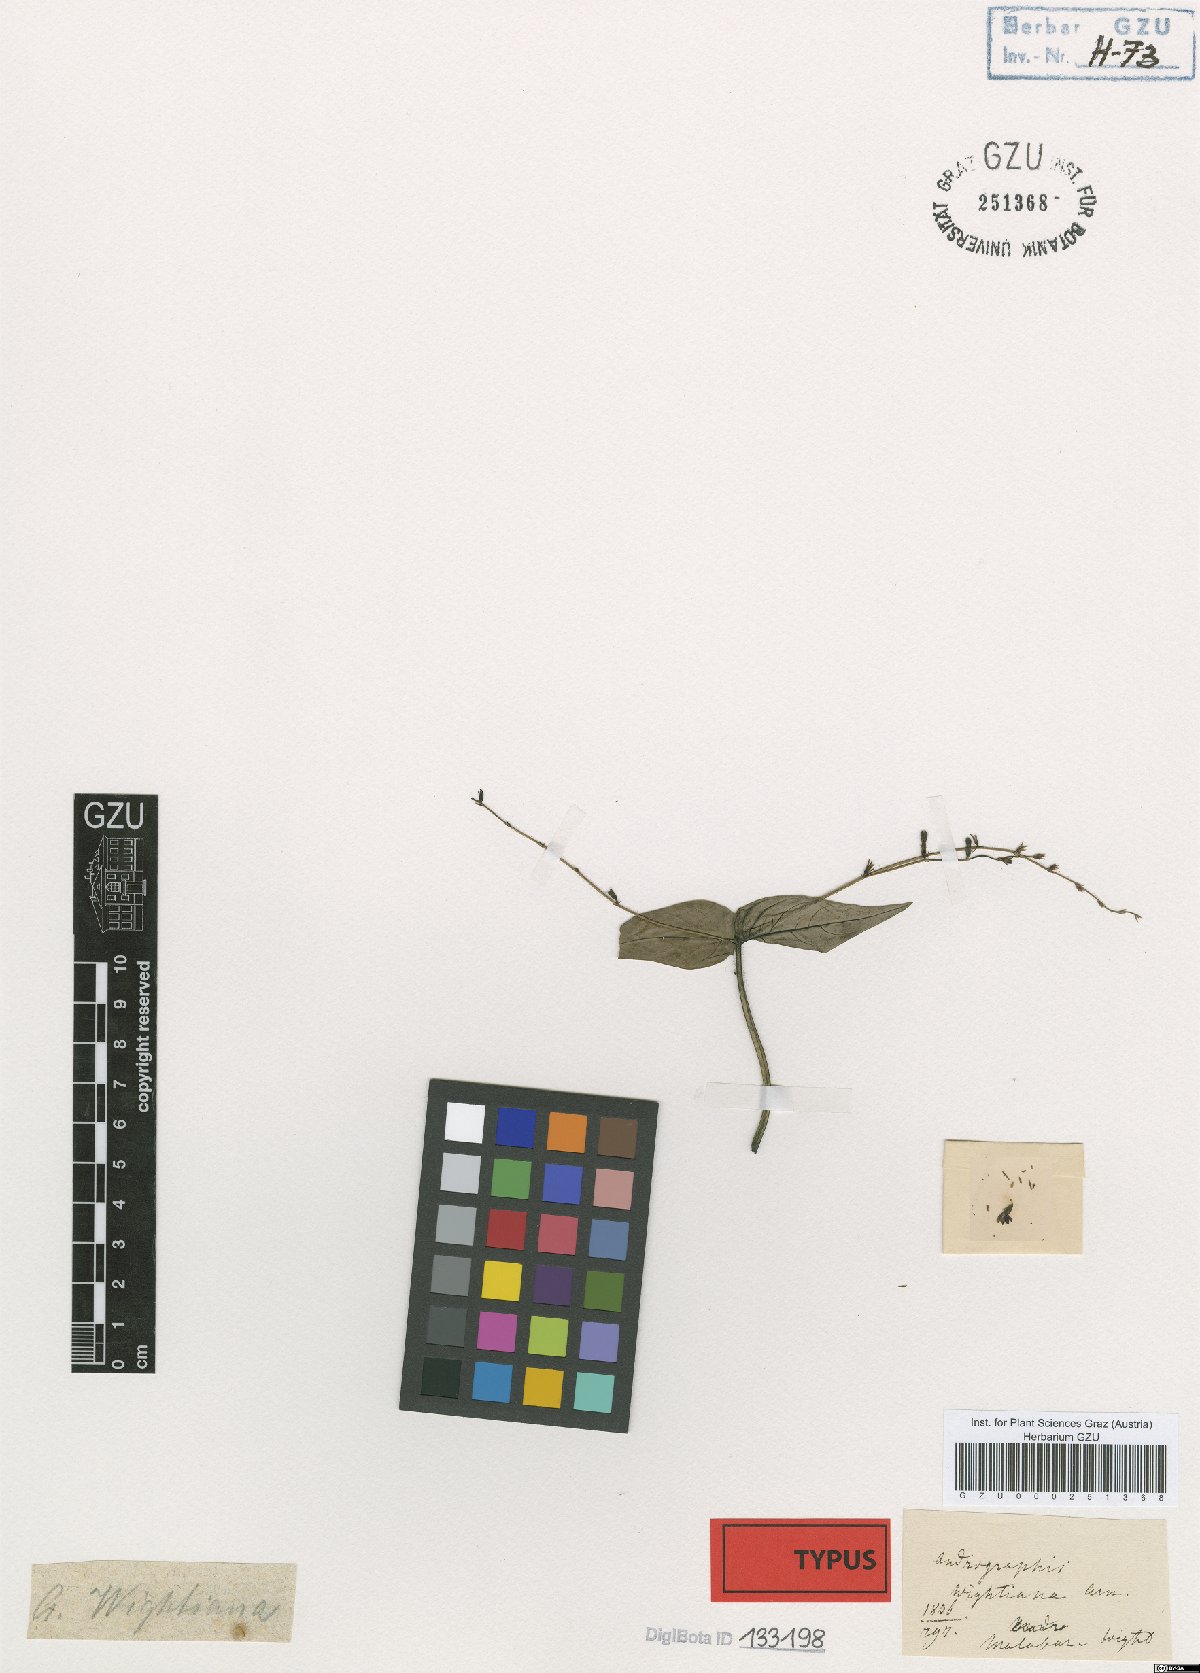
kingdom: Plantae
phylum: Tracheophyta
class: Magnoliopsida
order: Lamiales
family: Acanthaceae
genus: Andrographis
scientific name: Andrographis atropurpurea
